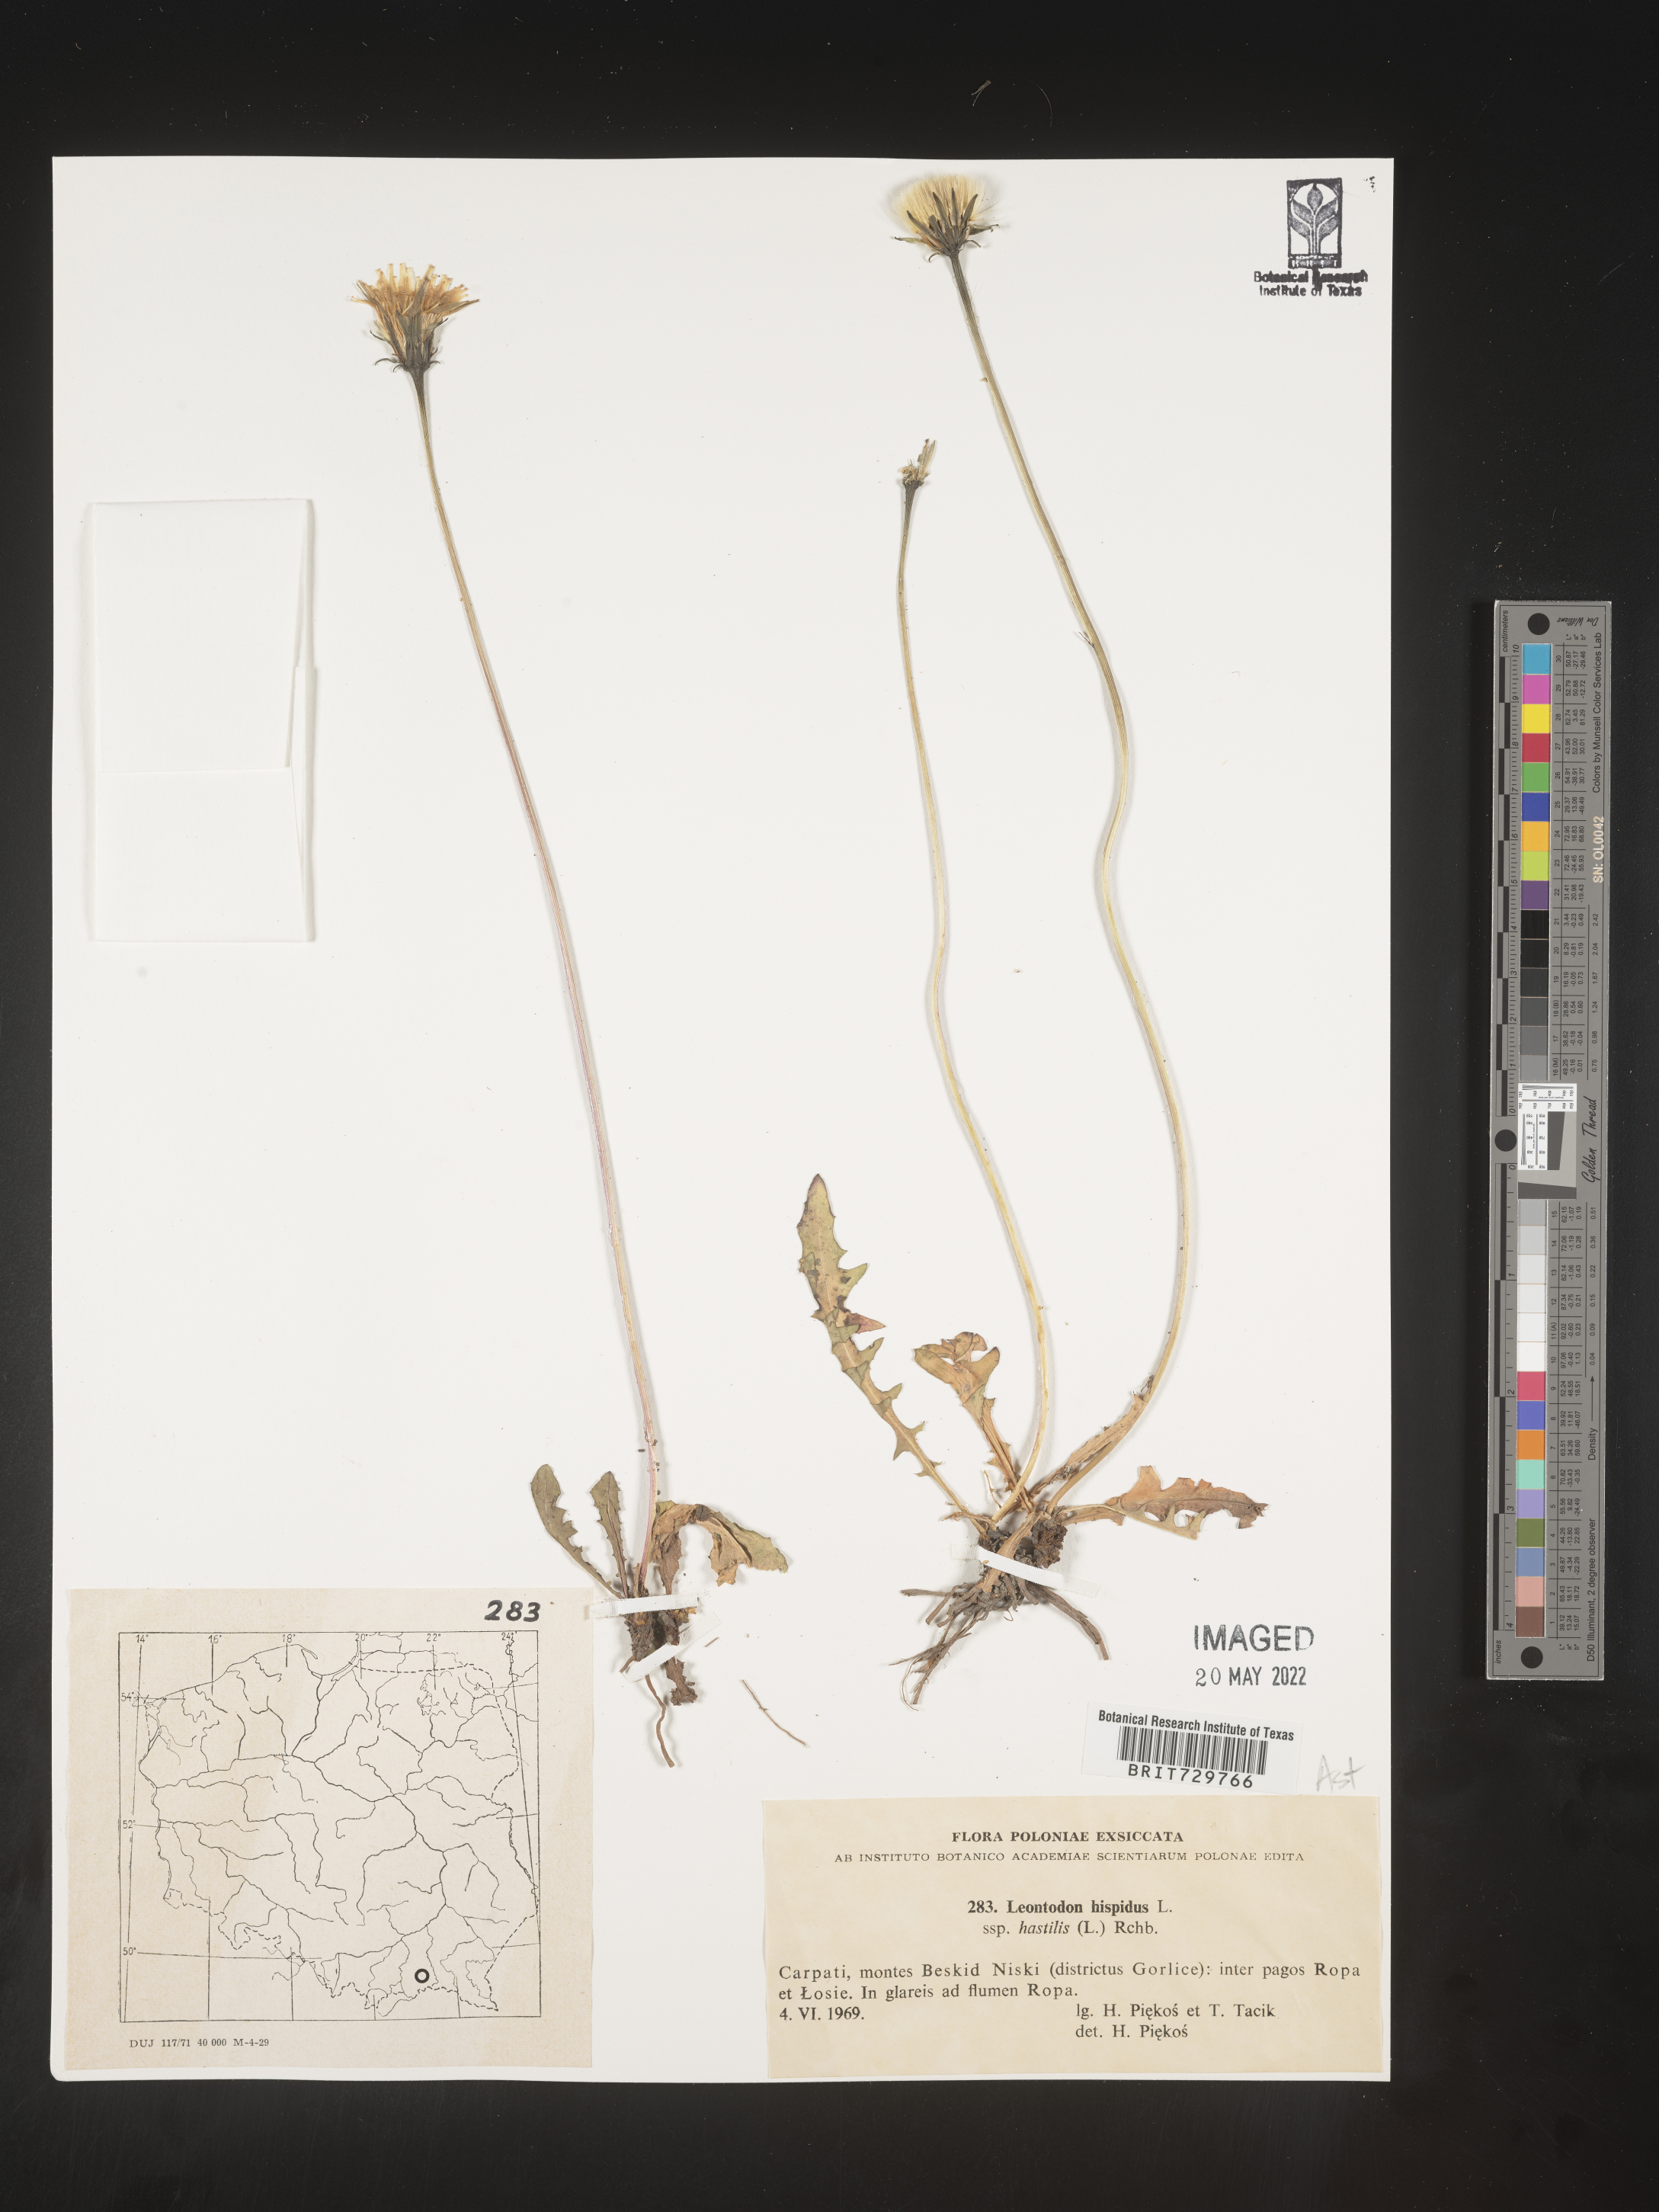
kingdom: Plantae
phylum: Tracheophyta
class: Magnoliopsida
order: Asterales
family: Asteraceae
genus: Leontodon
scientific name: Leontodon
